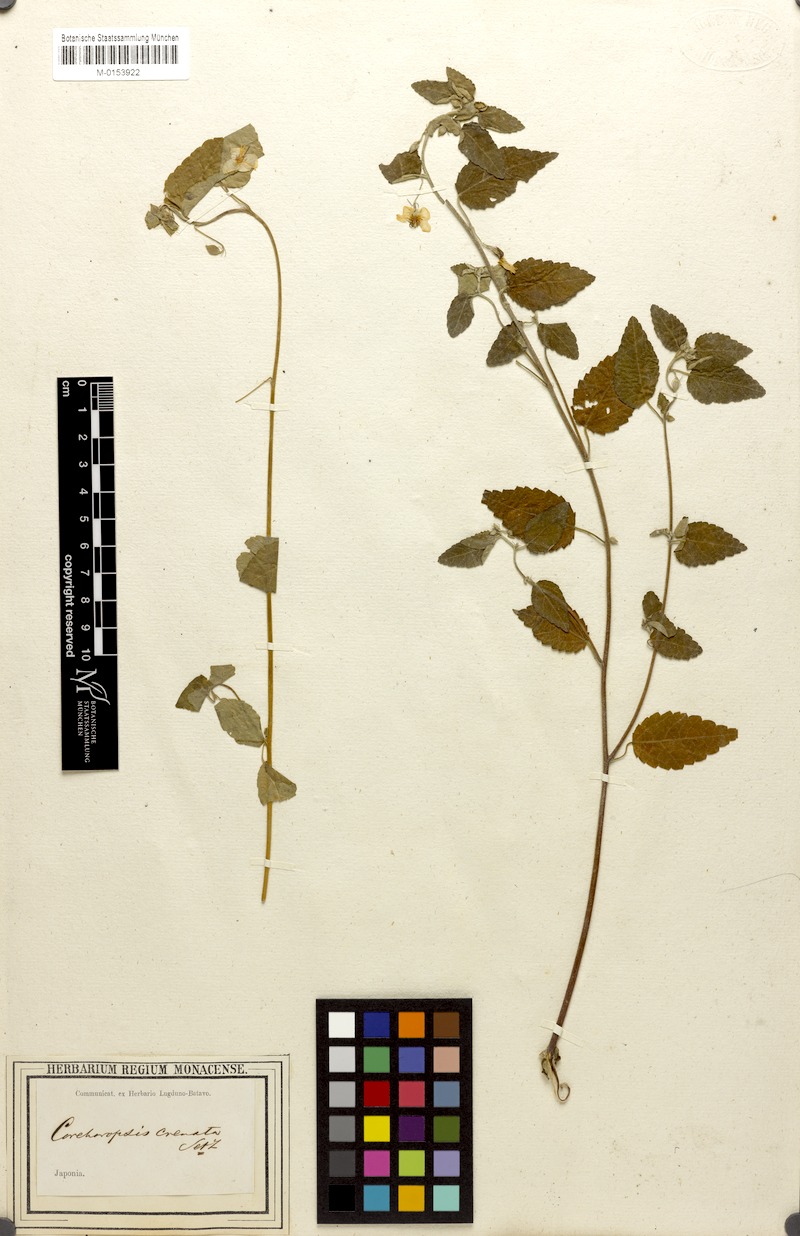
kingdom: Plantae
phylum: Tracheophyta
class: Magnoliopsida
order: Malvales
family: Malvaceae
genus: Corchoropsis
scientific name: Corchoropsis crenata
